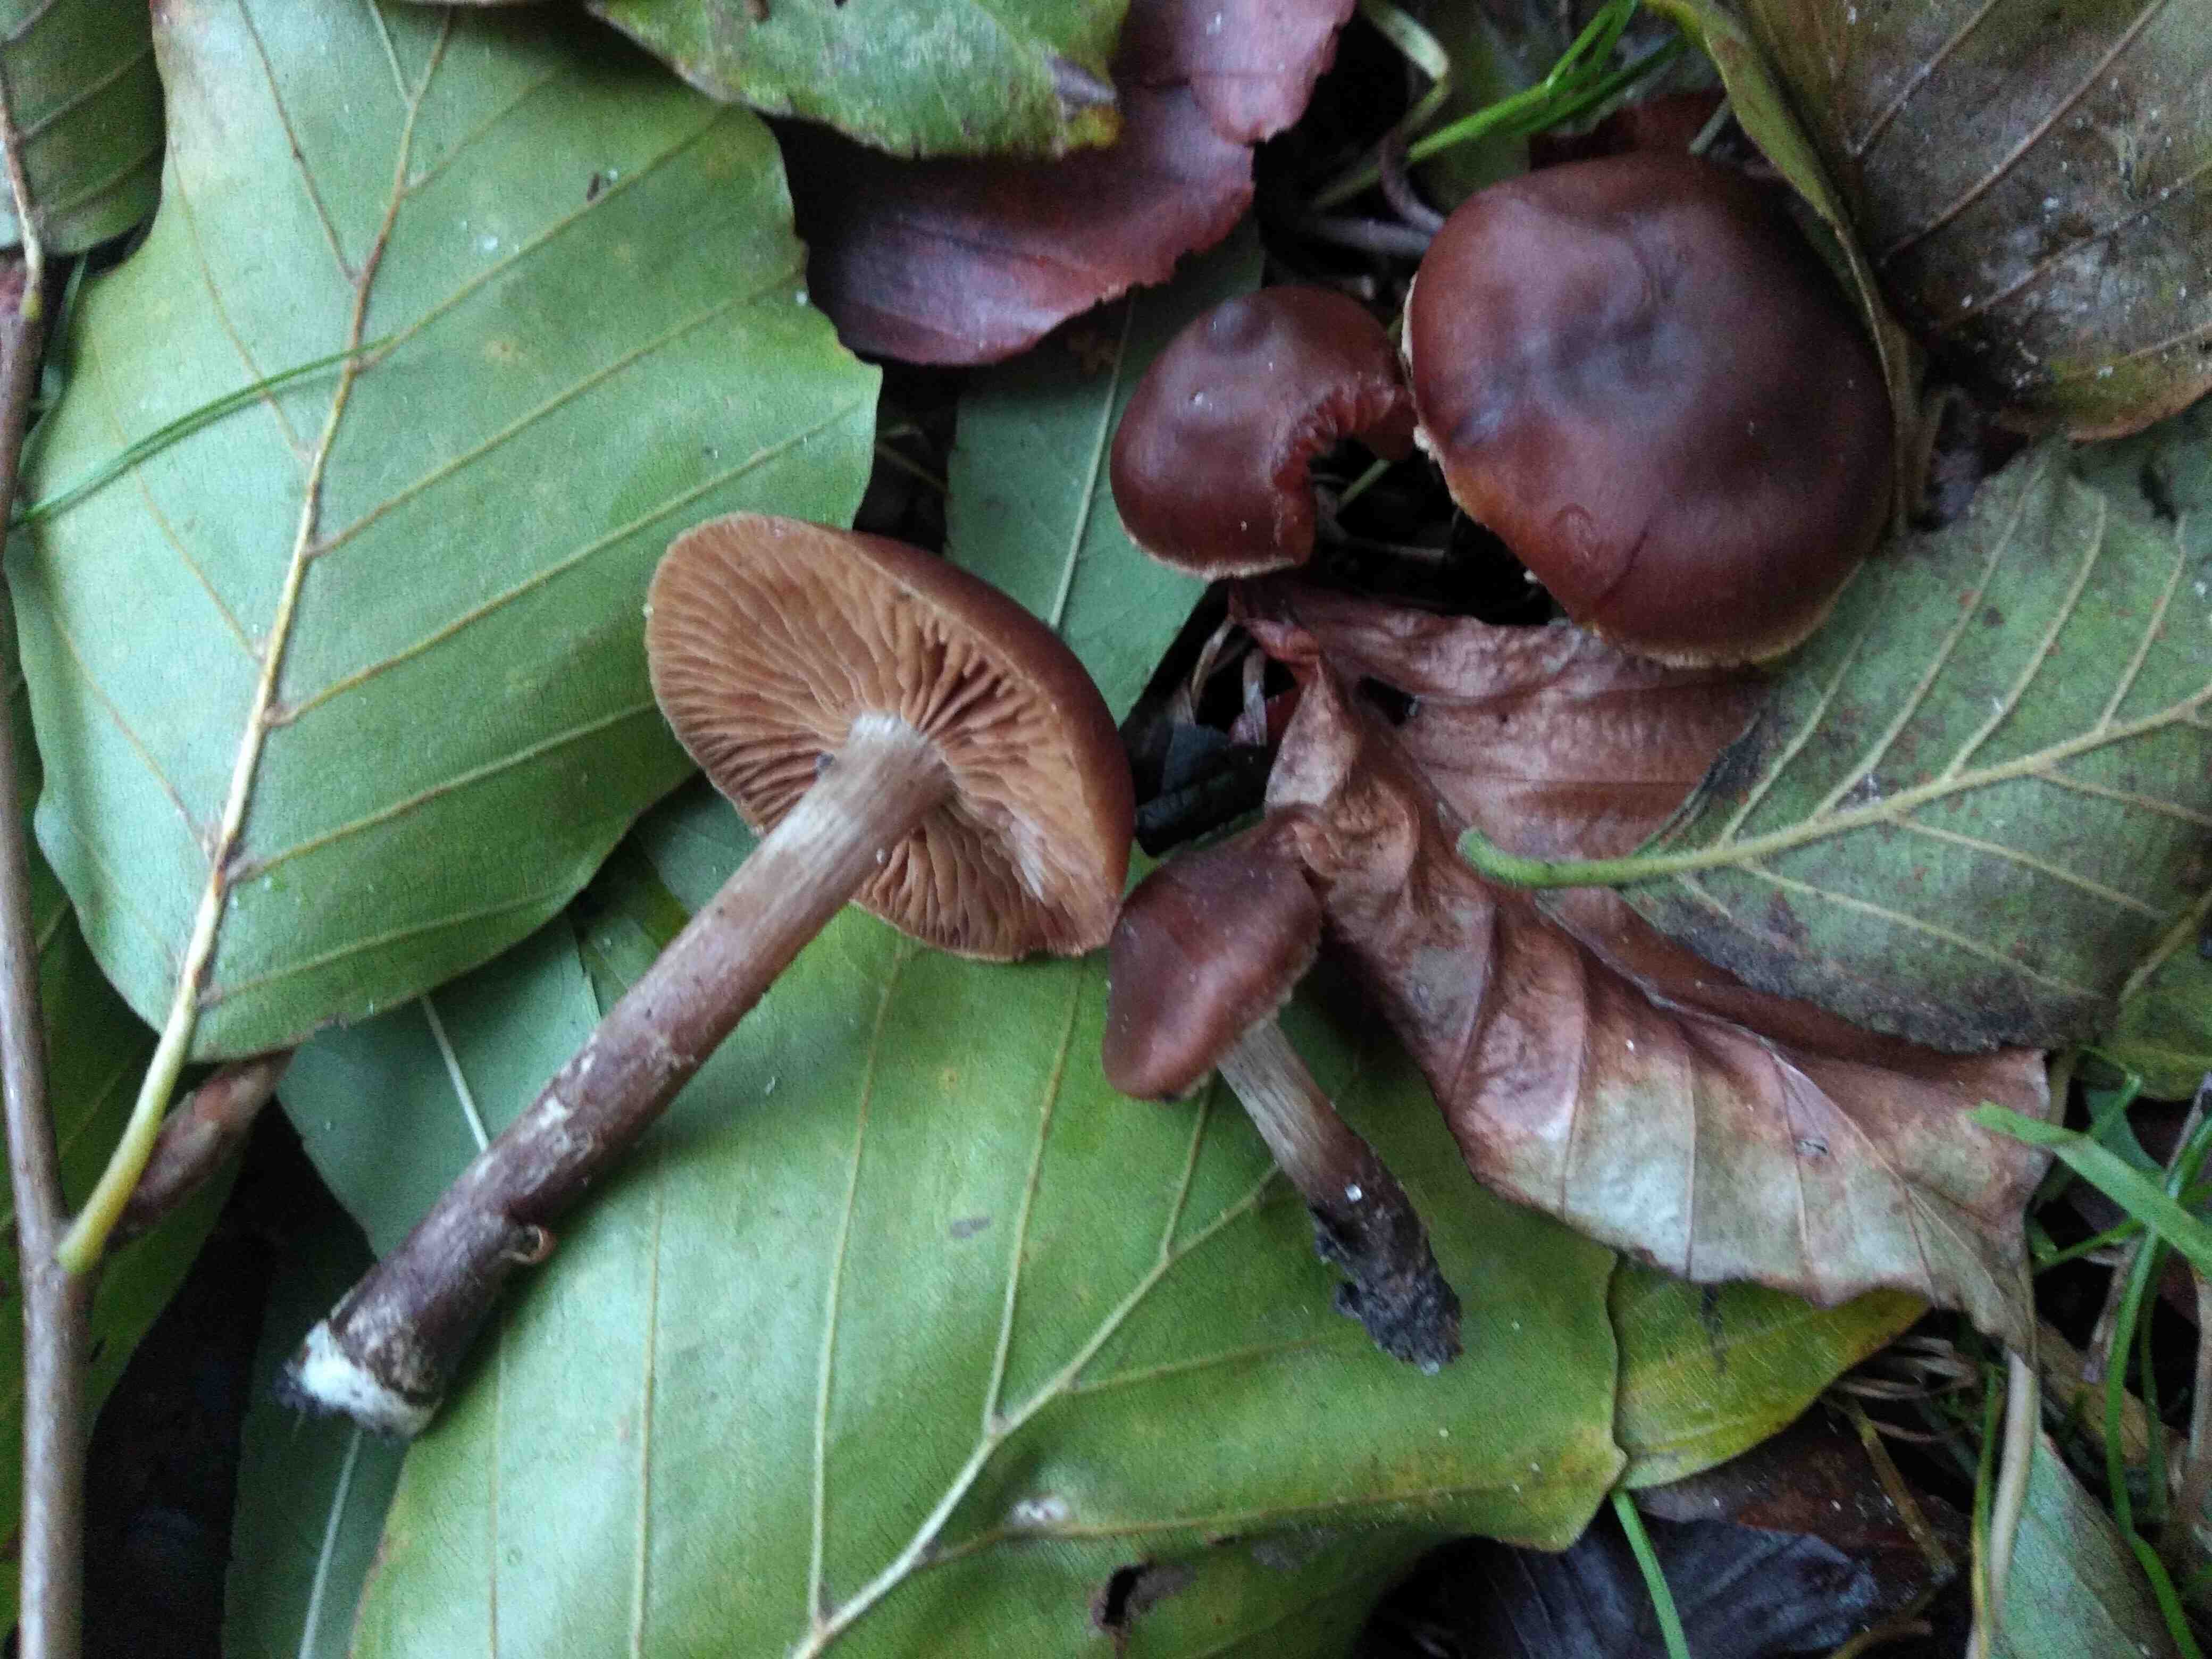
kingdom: Fungi
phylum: Basidiomycota
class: Agaricomycetes
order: Agaricales
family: Cortinariaceae
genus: Cortinarius
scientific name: Cortinarius
